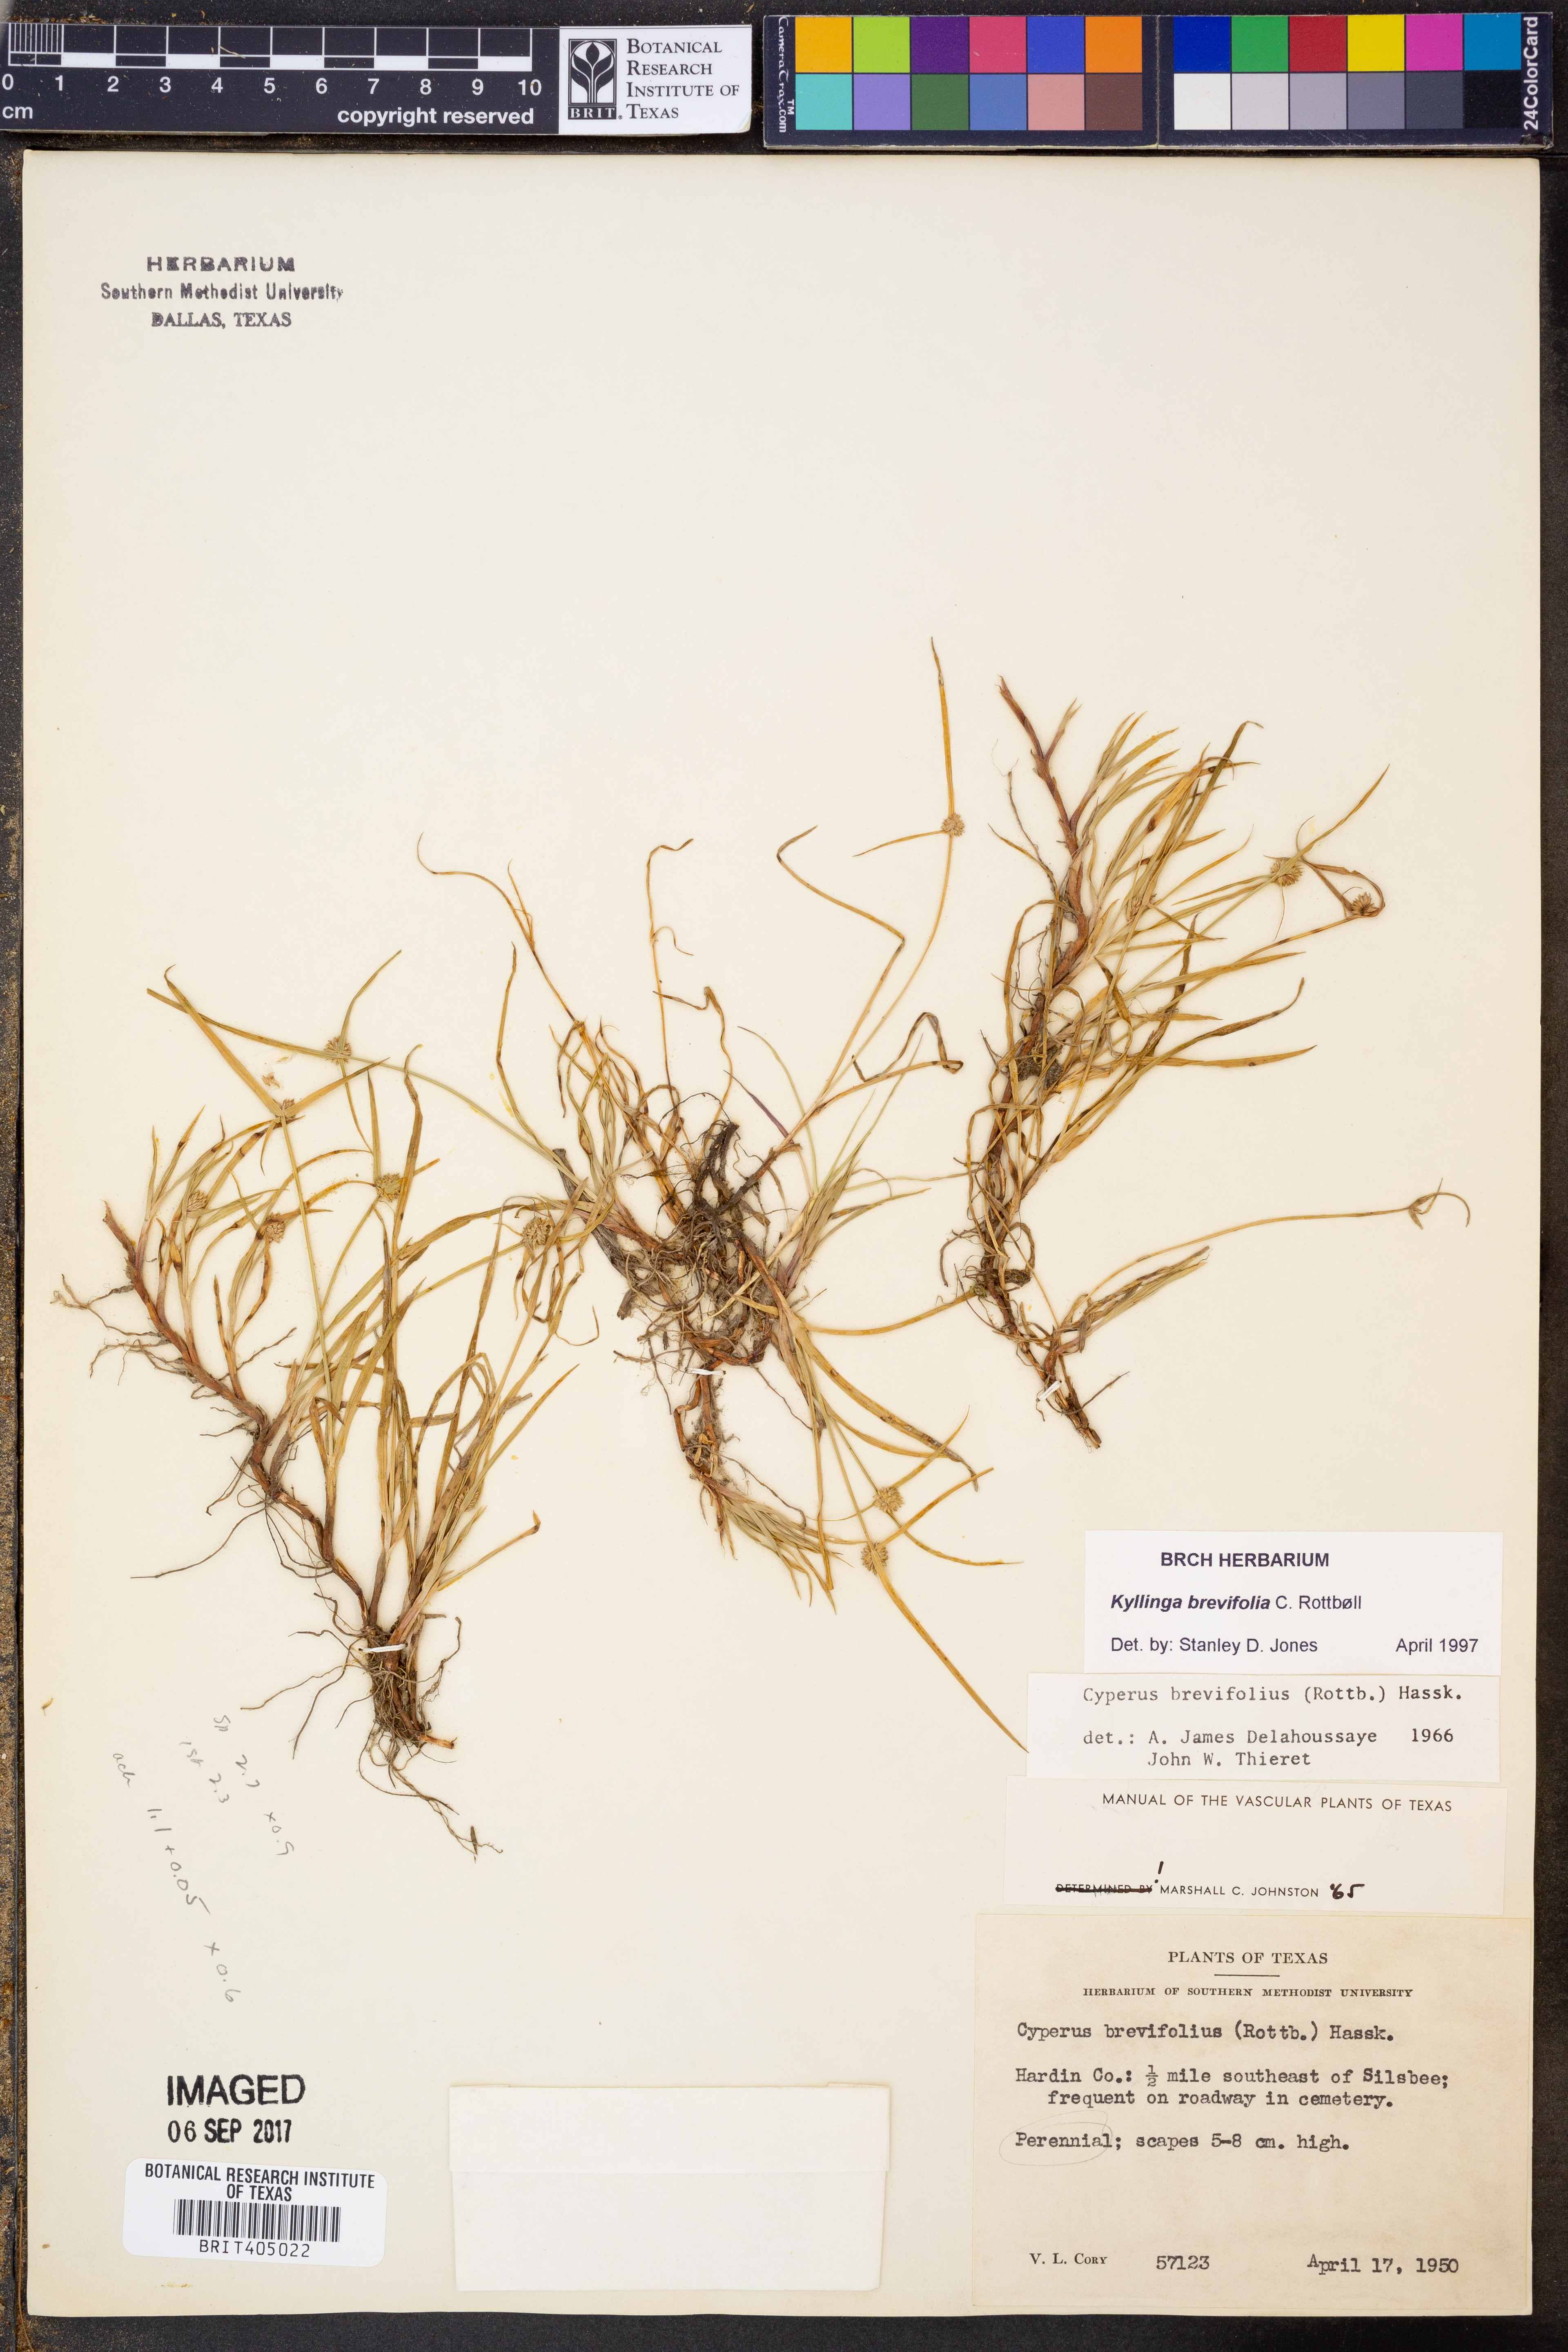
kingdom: Plantae
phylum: Tracheophyta
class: Liliopsida
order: Poales
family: Cyperaceae
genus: Cyperus
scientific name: Cyperus brevifolius
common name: Globe kyllinga
